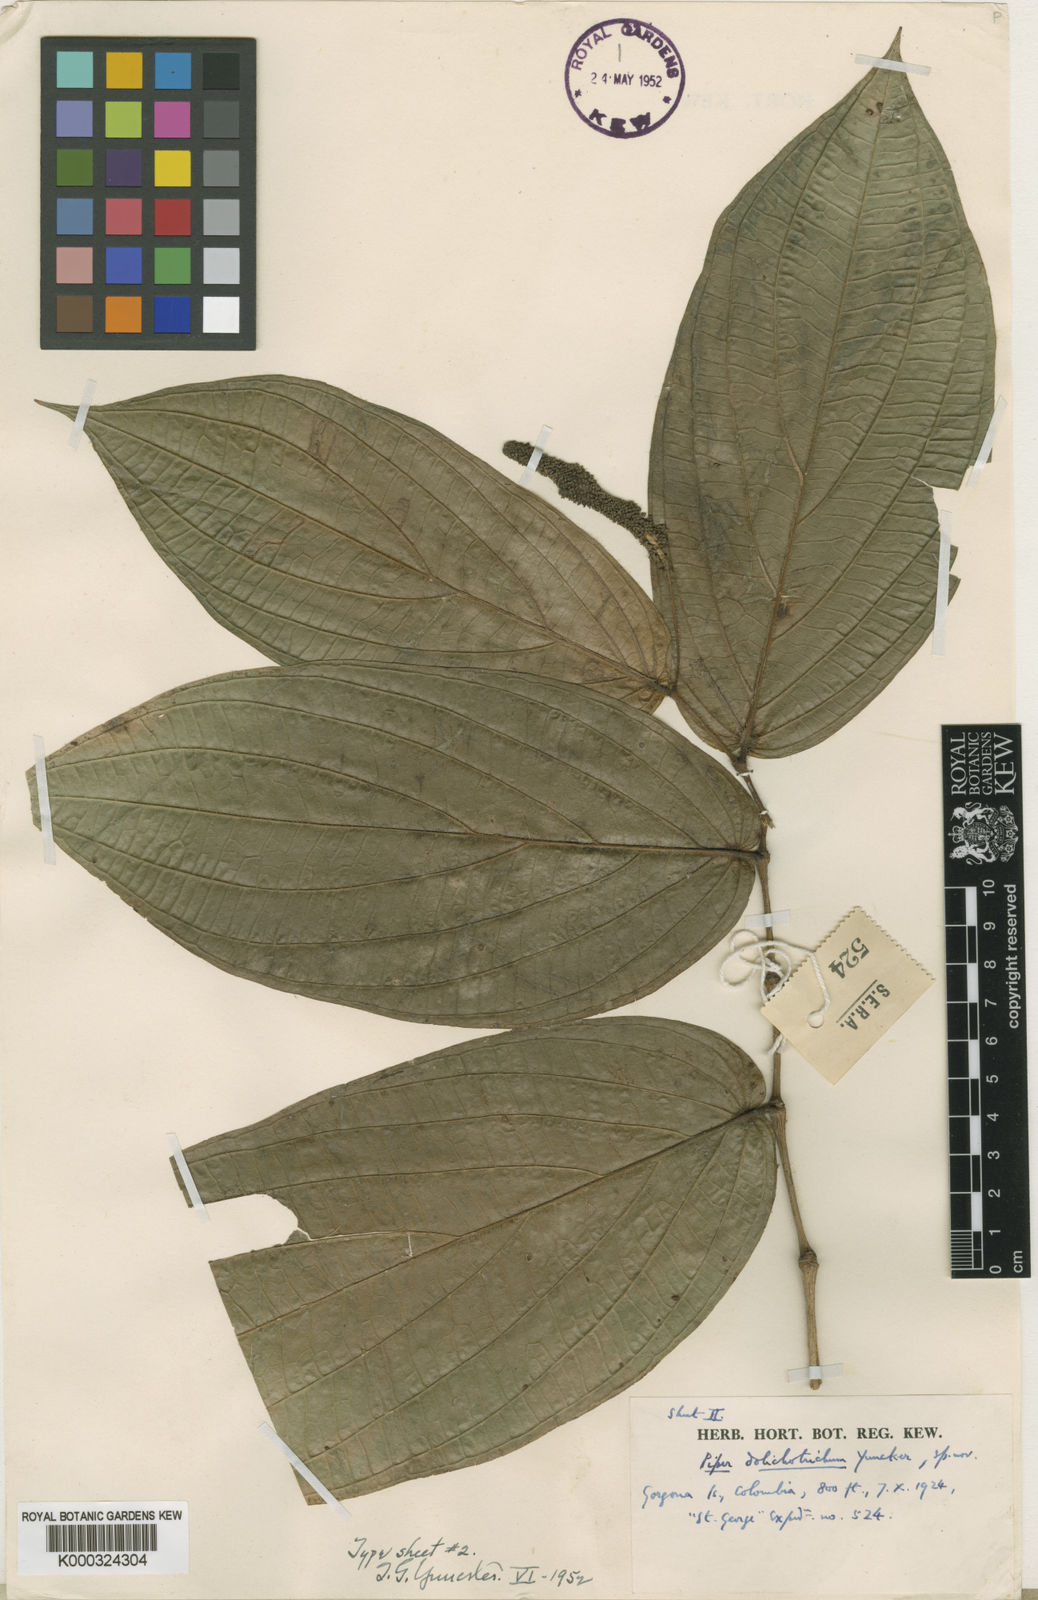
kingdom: Plantae
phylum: Tracheophyta
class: Magnoliopsida
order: Piperales
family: Piperaceae
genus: Piper
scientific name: Piper dolichotrichum
